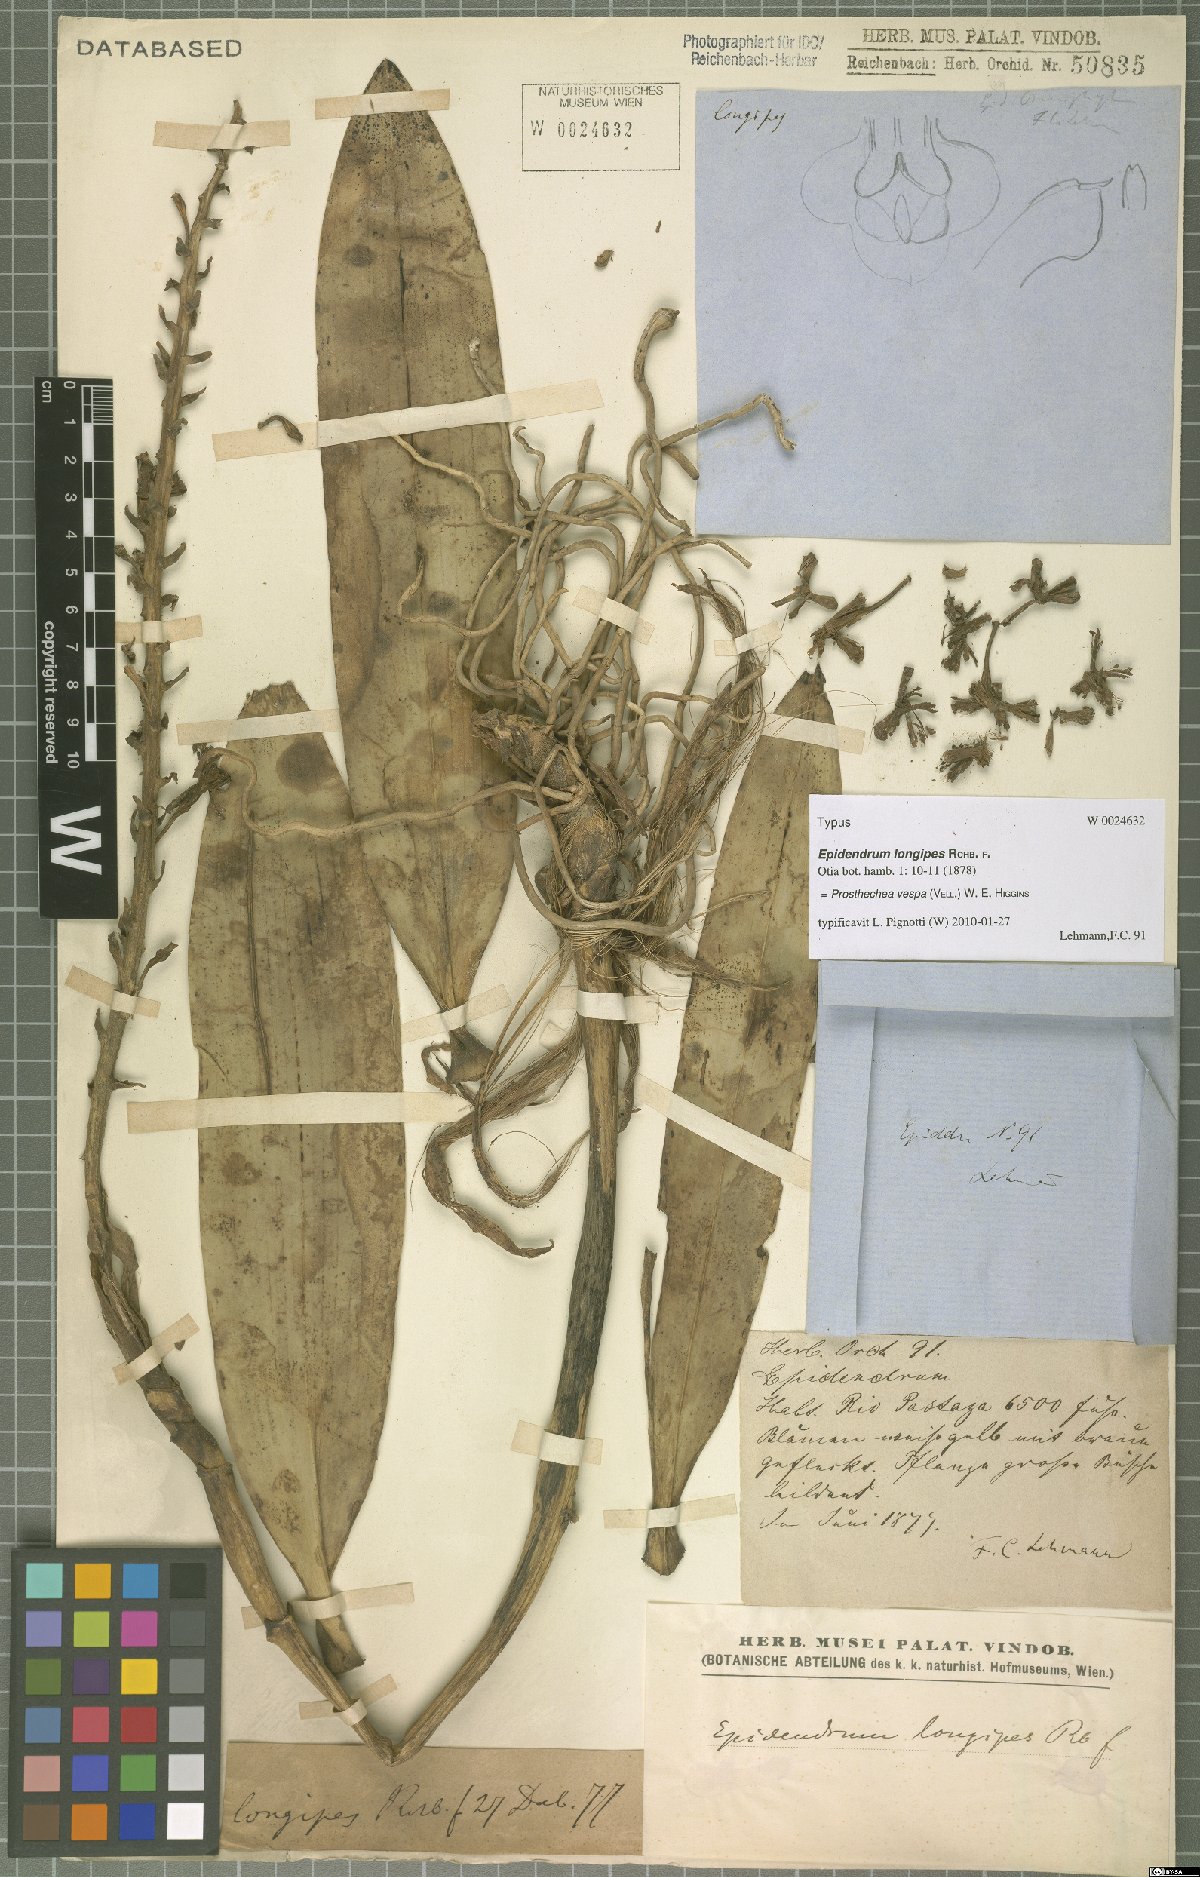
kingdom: Plantae
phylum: Tracheophyta
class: Liliopsida
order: Asparagales
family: Orchidaceae
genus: Prosthechea
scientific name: Prosthechea vespa
